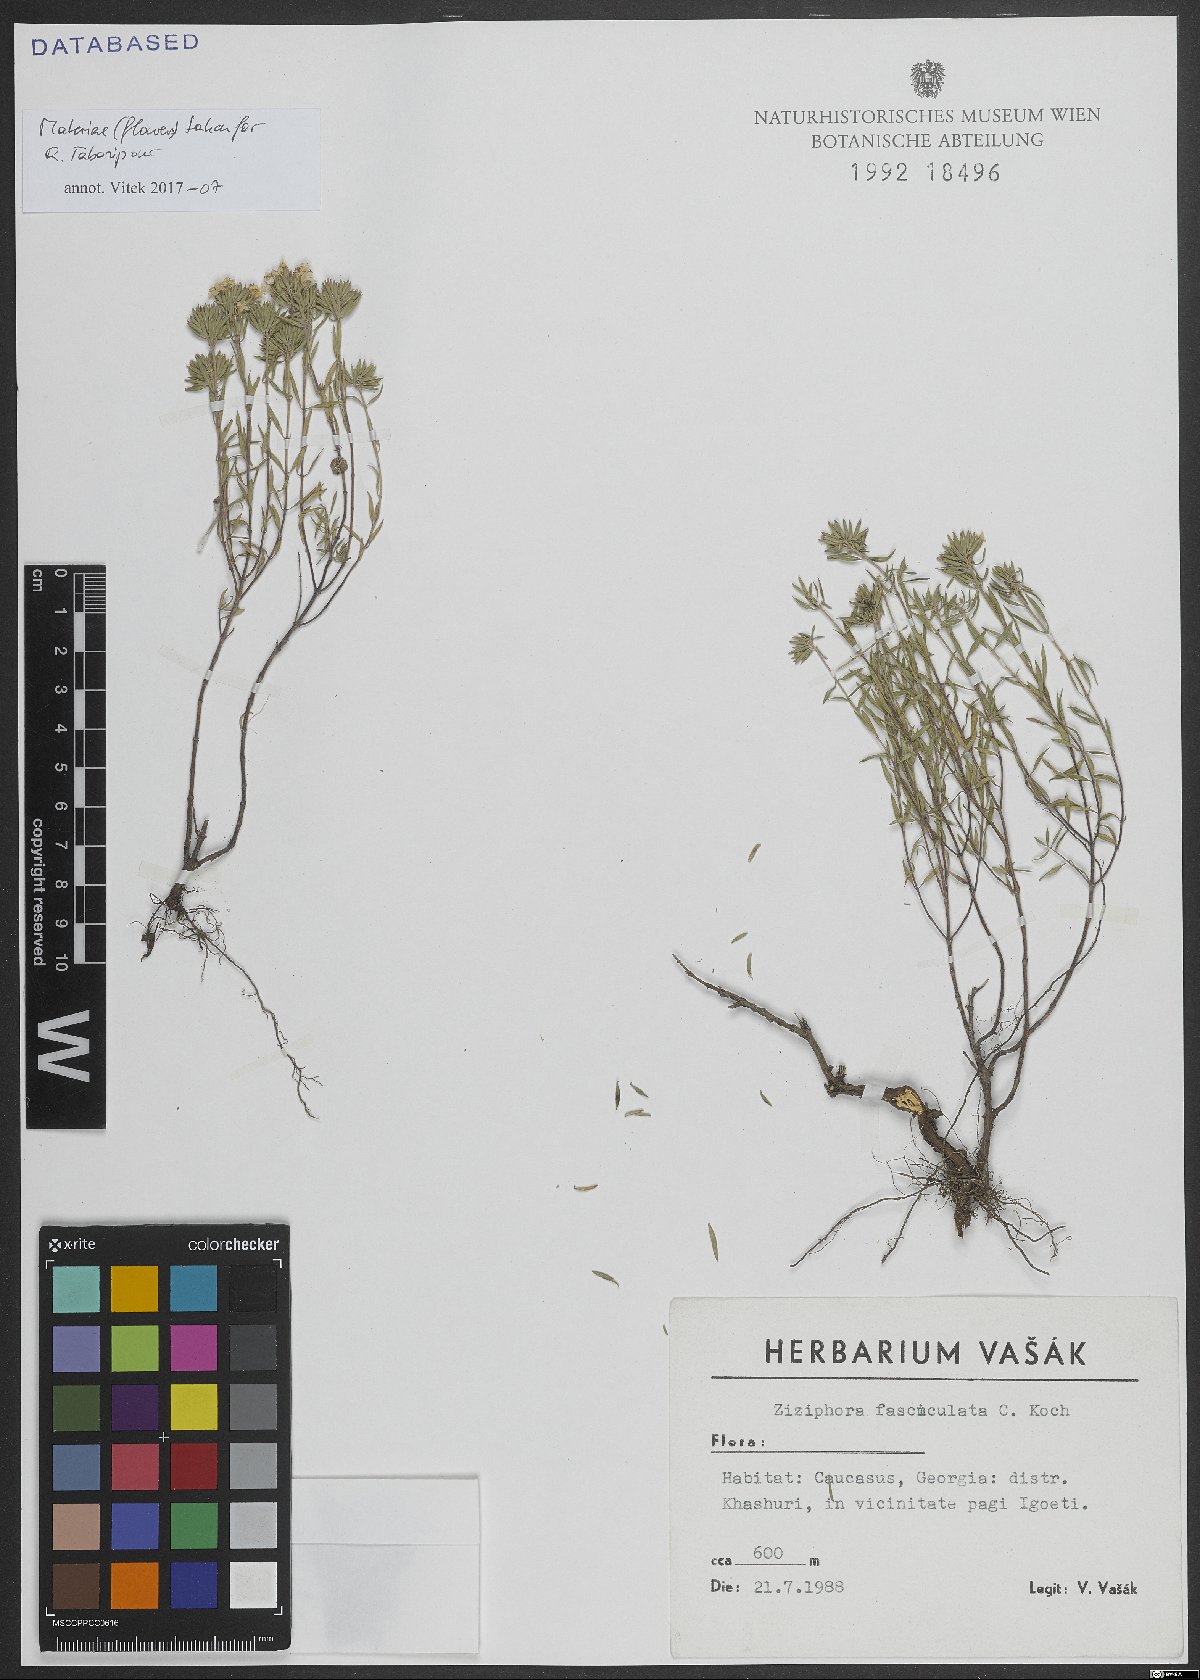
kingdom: Plantae
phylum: Tracheophyta
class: Magnoliopsida
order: Lamiales
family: Lamiaceae
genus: Ziziphora
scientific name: Ziziphora clinopodioides
